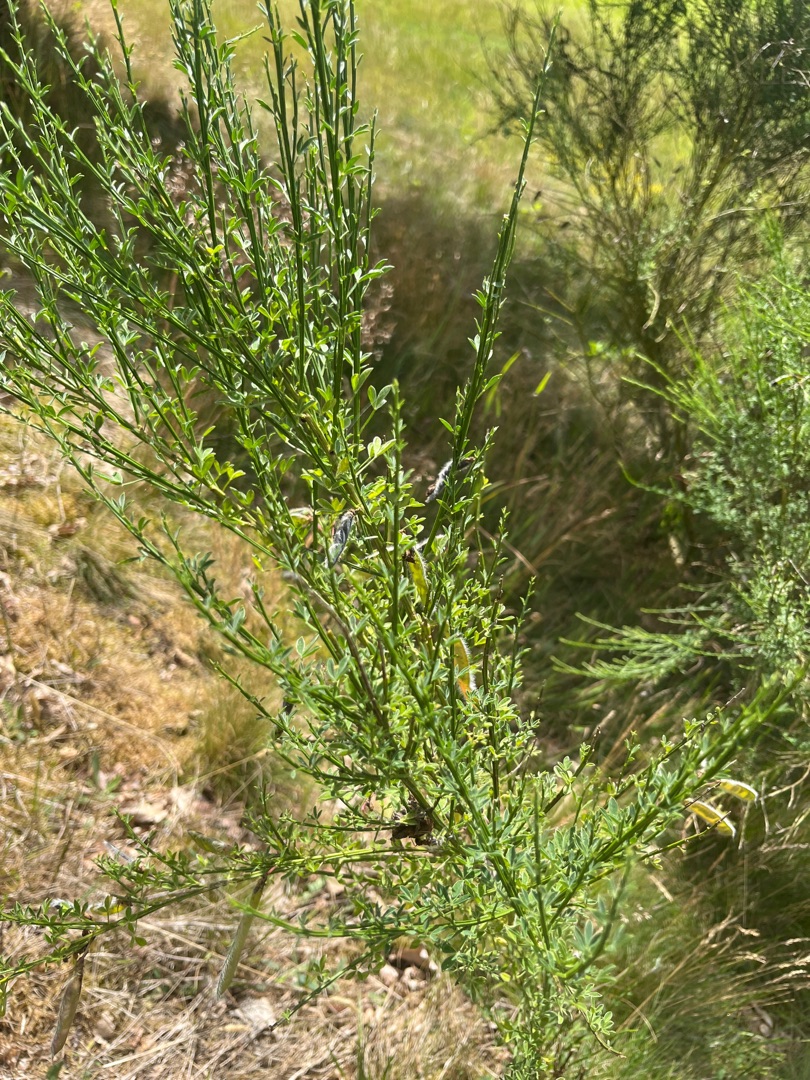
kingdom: Plantae
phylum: Tracheophyta
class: Magnoliopsida
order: Fabales
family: Fabaceae
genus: Cytisus
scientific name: Cytisus scoparius
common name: Almindelig gyvel
